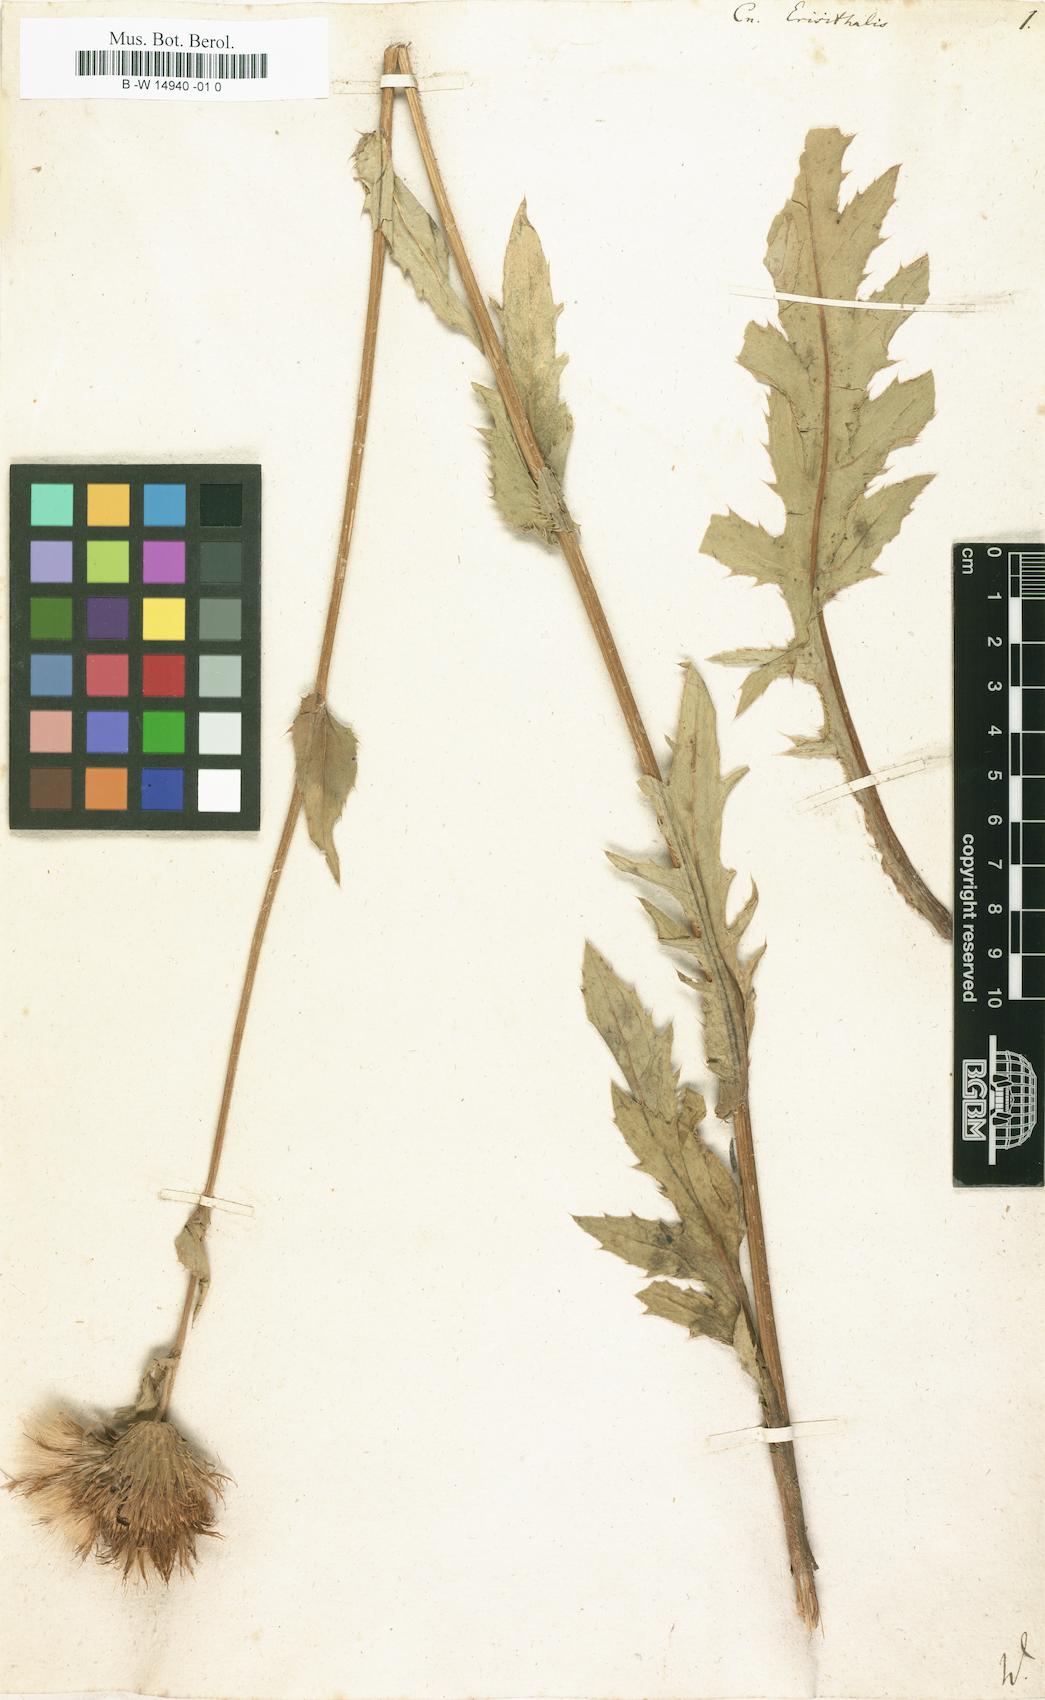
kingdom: Plantae
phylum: Tracheophyta
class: Magnoliopsida
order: Asterales
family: Asteraceae
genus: Cirsium
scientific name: Cirsium erisithales
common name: Yellow thistle
